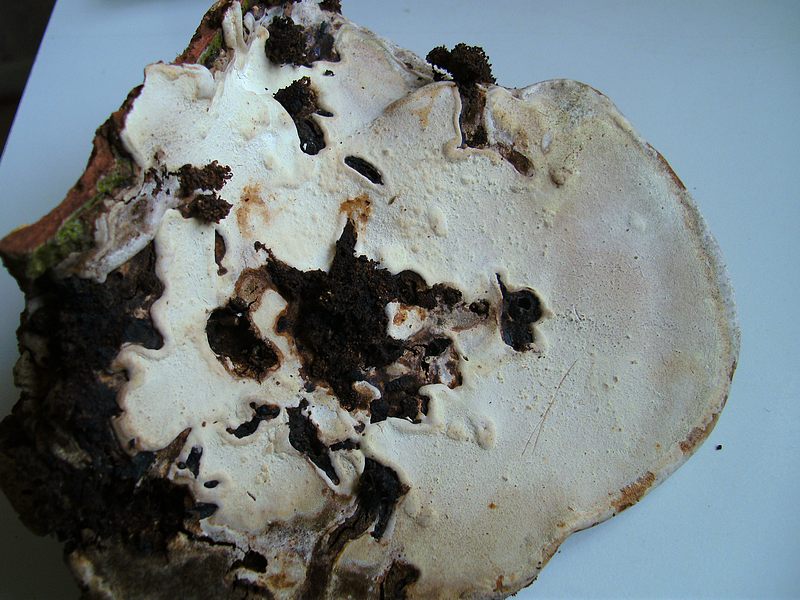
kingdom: Fungi
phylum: Basidiomycota
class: Agaricomycetes
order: Polyporales
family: Polyporaceae
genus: Ganoderma
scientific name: Ganoderma applanatum
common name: flad lakporesvamp
